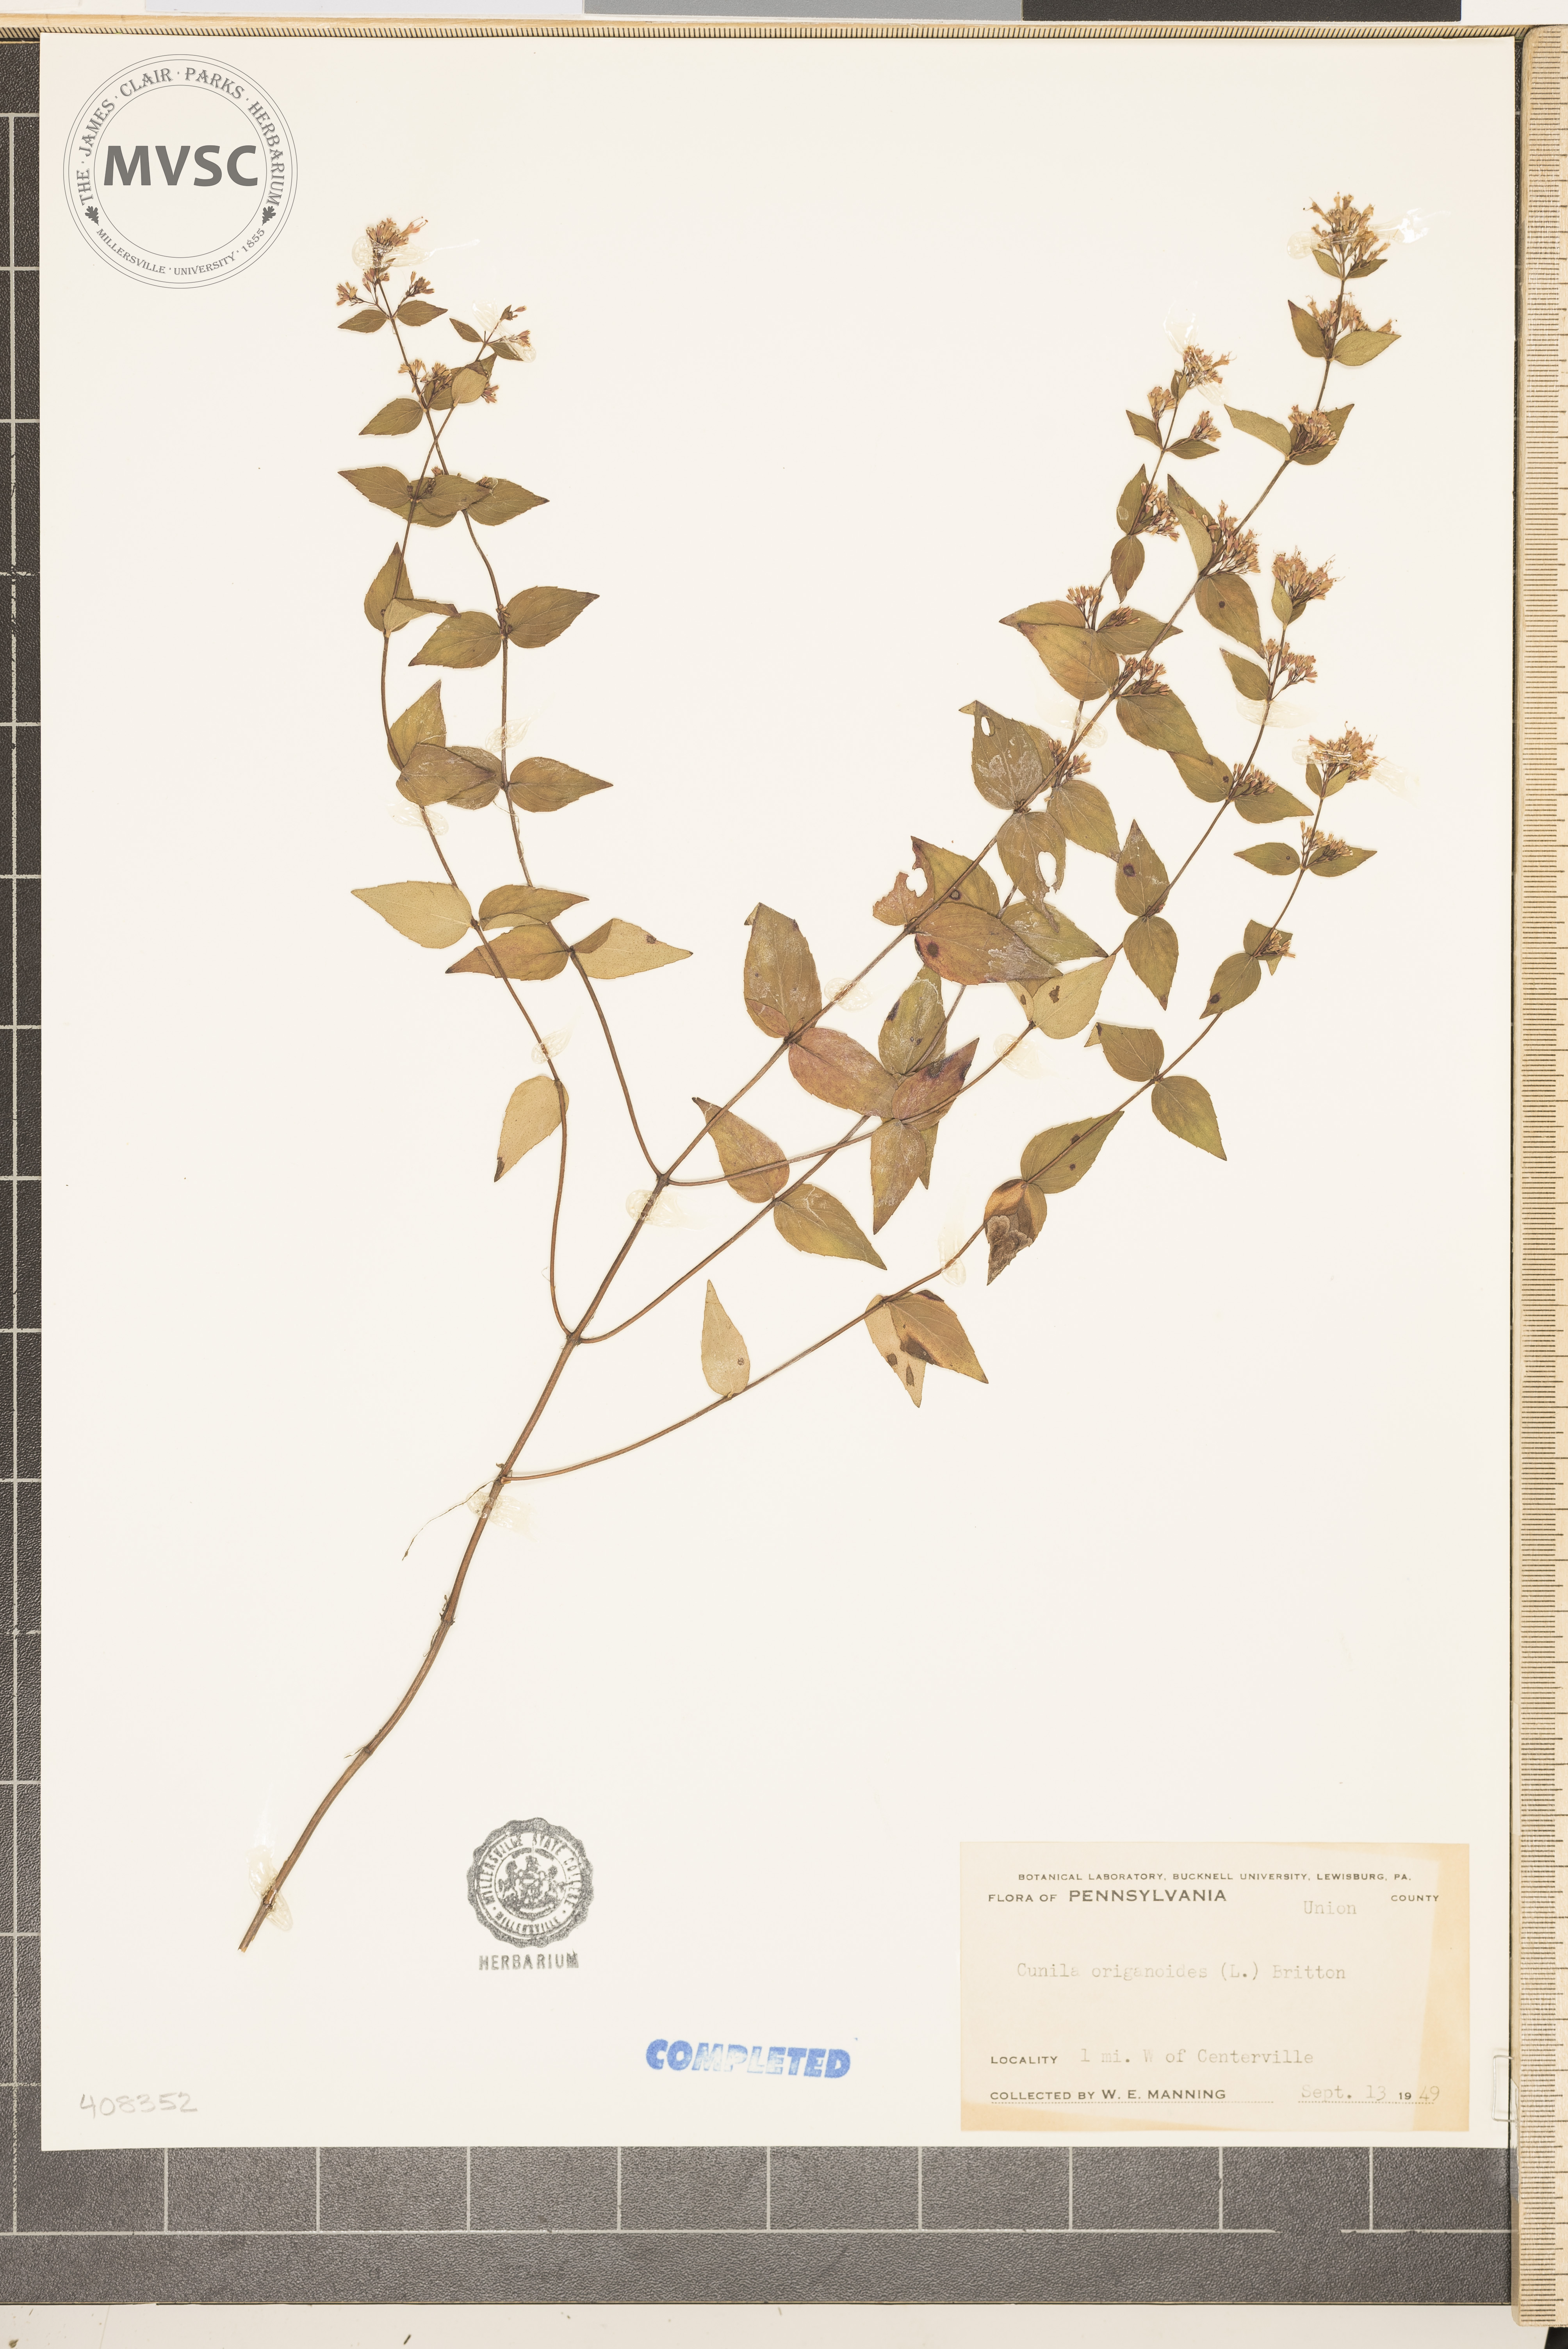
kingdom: Plantae
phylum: Tracheophyta
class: Magnoliopsida
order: Lamiales
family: Lamiaceae
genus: Cunila
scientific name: Cunila origanoides
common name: American dittany
